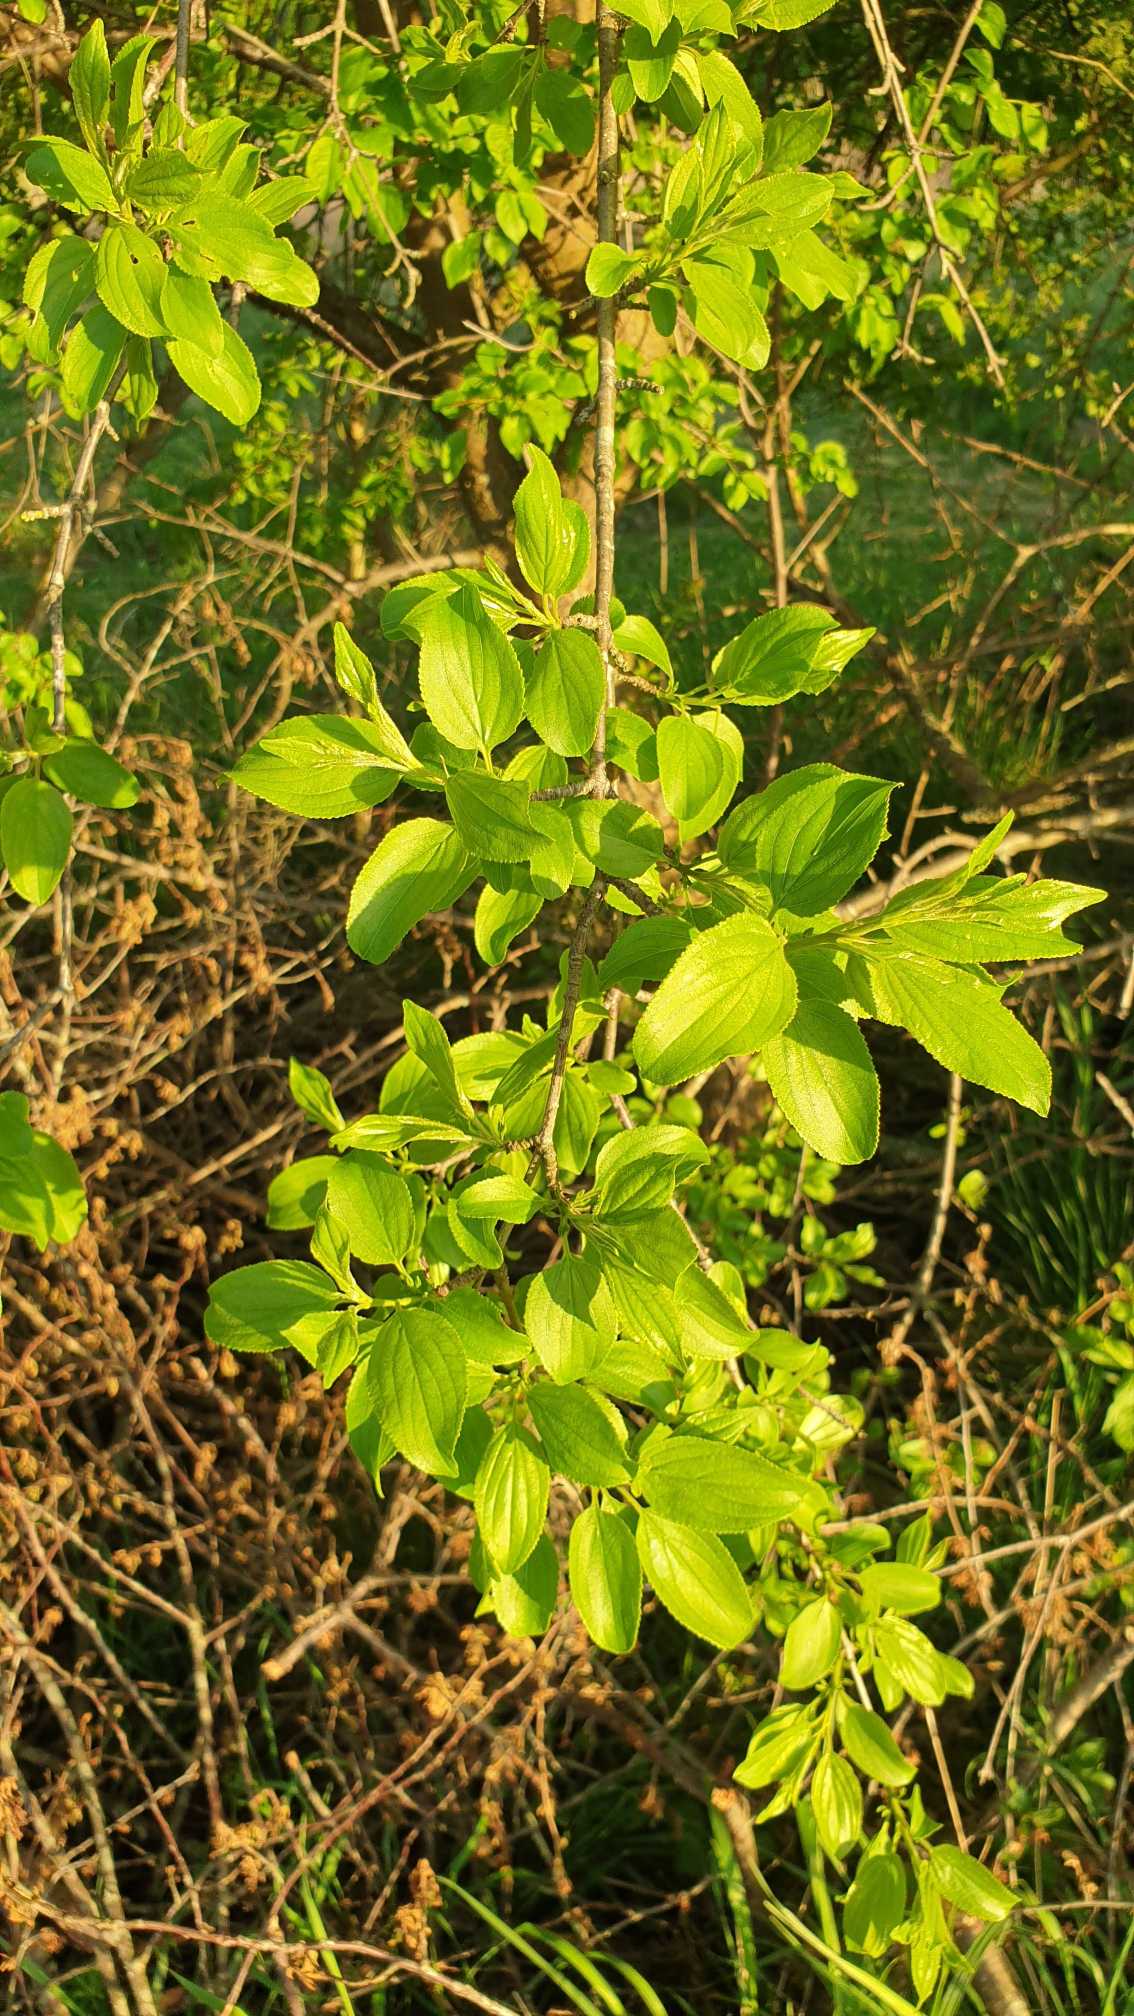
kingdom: Plantae
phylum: Tracheophyta
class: Magnoliopsida
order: Rosales
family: Rhamnaceae
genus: Rhamnus
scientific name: Rhamnus cathartica
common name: Vrietorn
